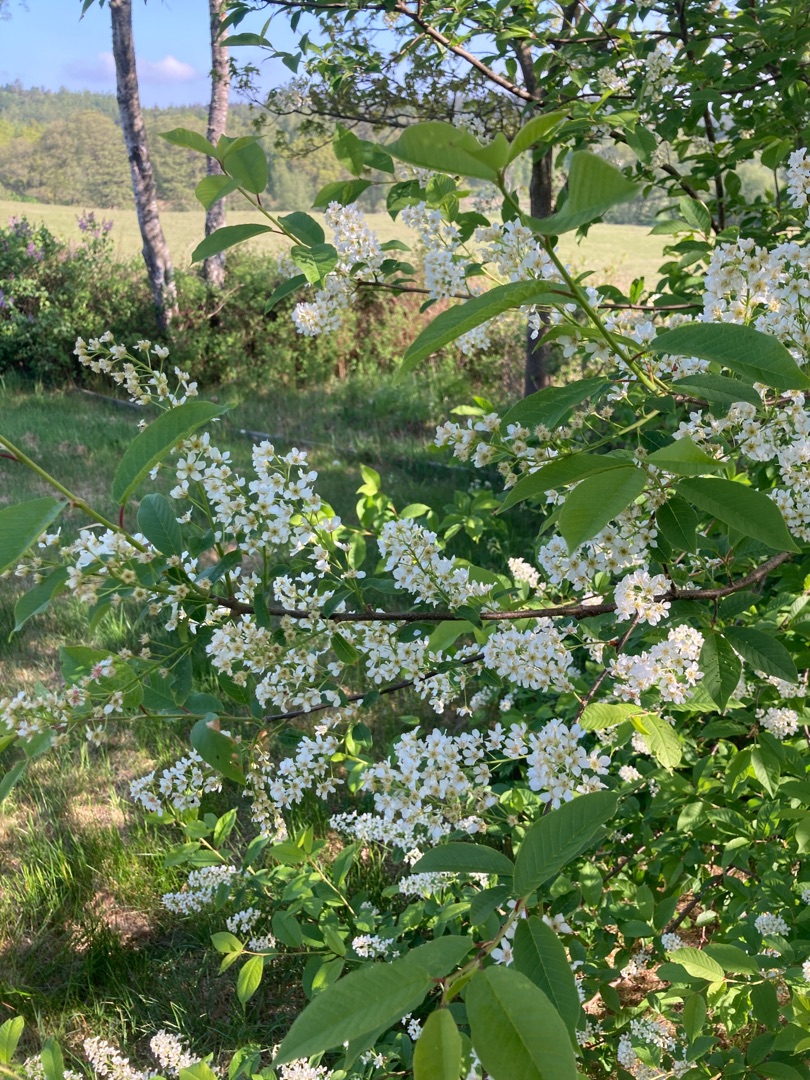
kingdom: Plantae
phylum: Tracheophyta
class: Magnoliopsida
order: Rosales
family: Rosaceae
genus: Prunus
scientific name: Prunus padus
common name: Almindelig hæg
